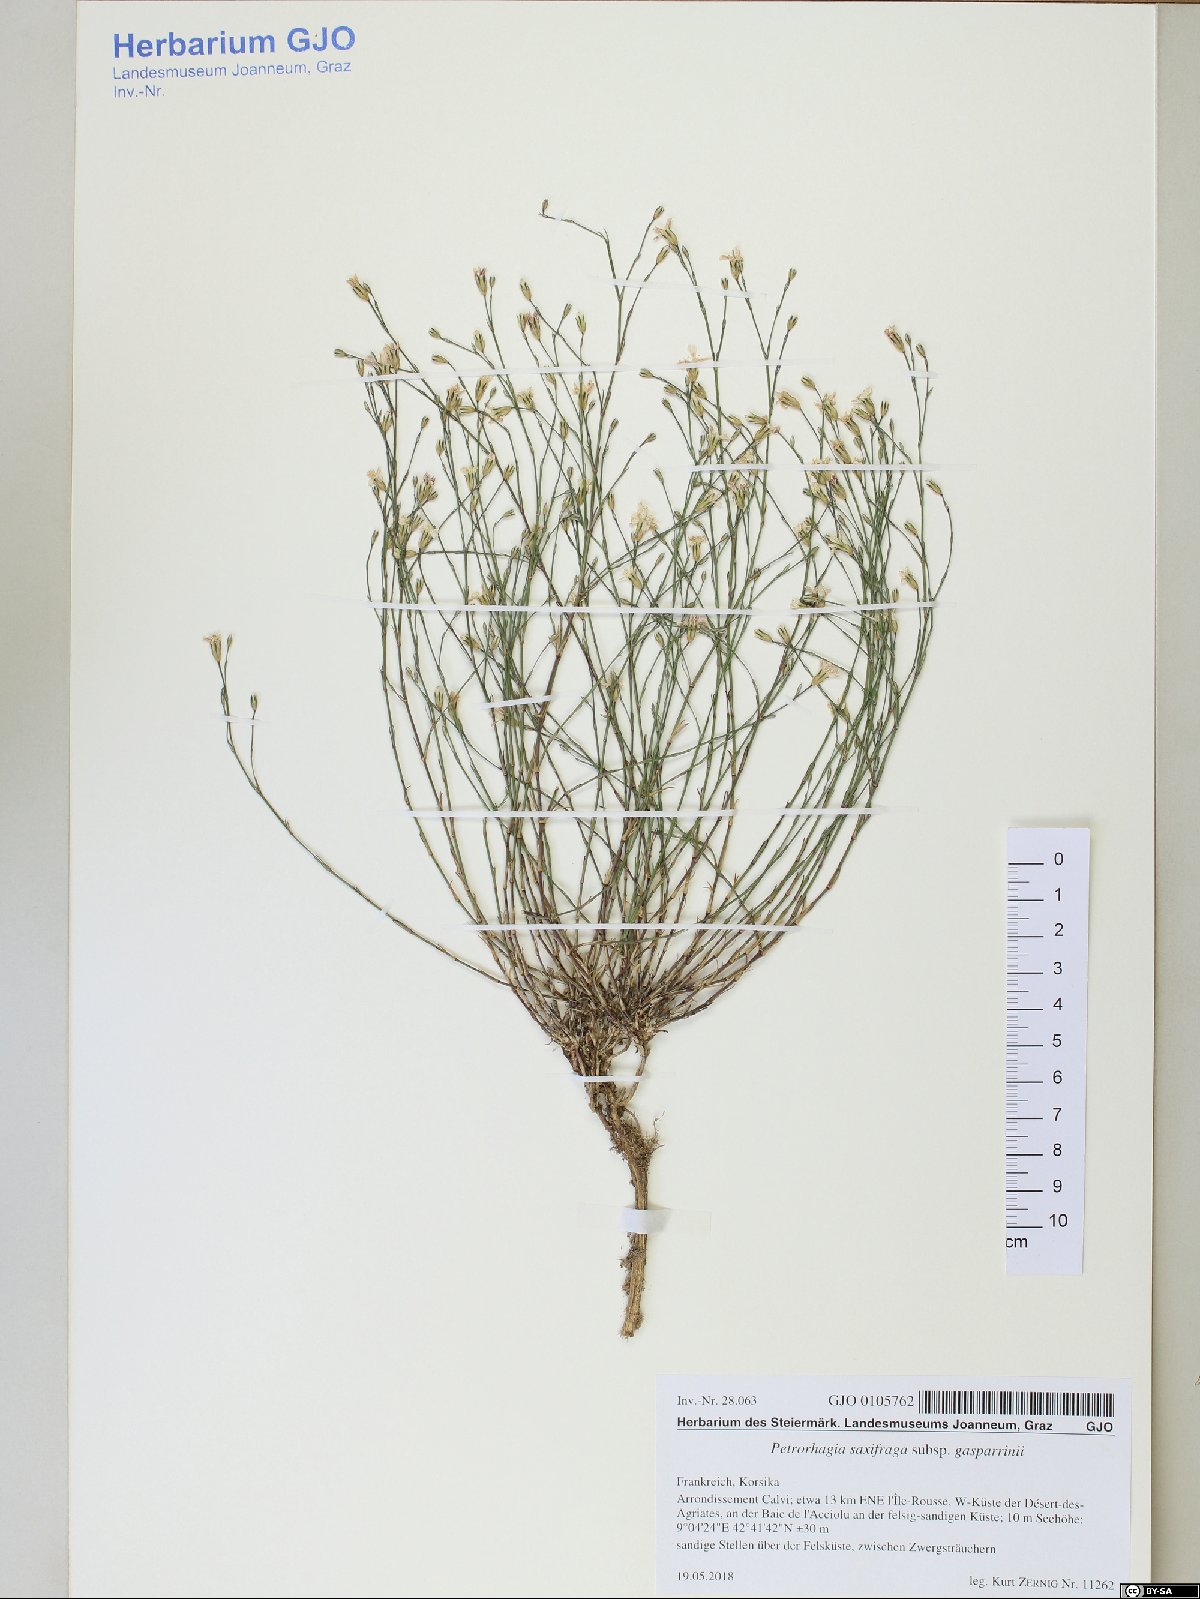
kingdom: Plantae
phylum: Tracheophyta
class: Magnoliopsida
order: Caryophyllales
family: Caryophyllaceae
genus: Petrorhagia
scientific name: Petrorhagia saxifraga
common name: Tunicflower
